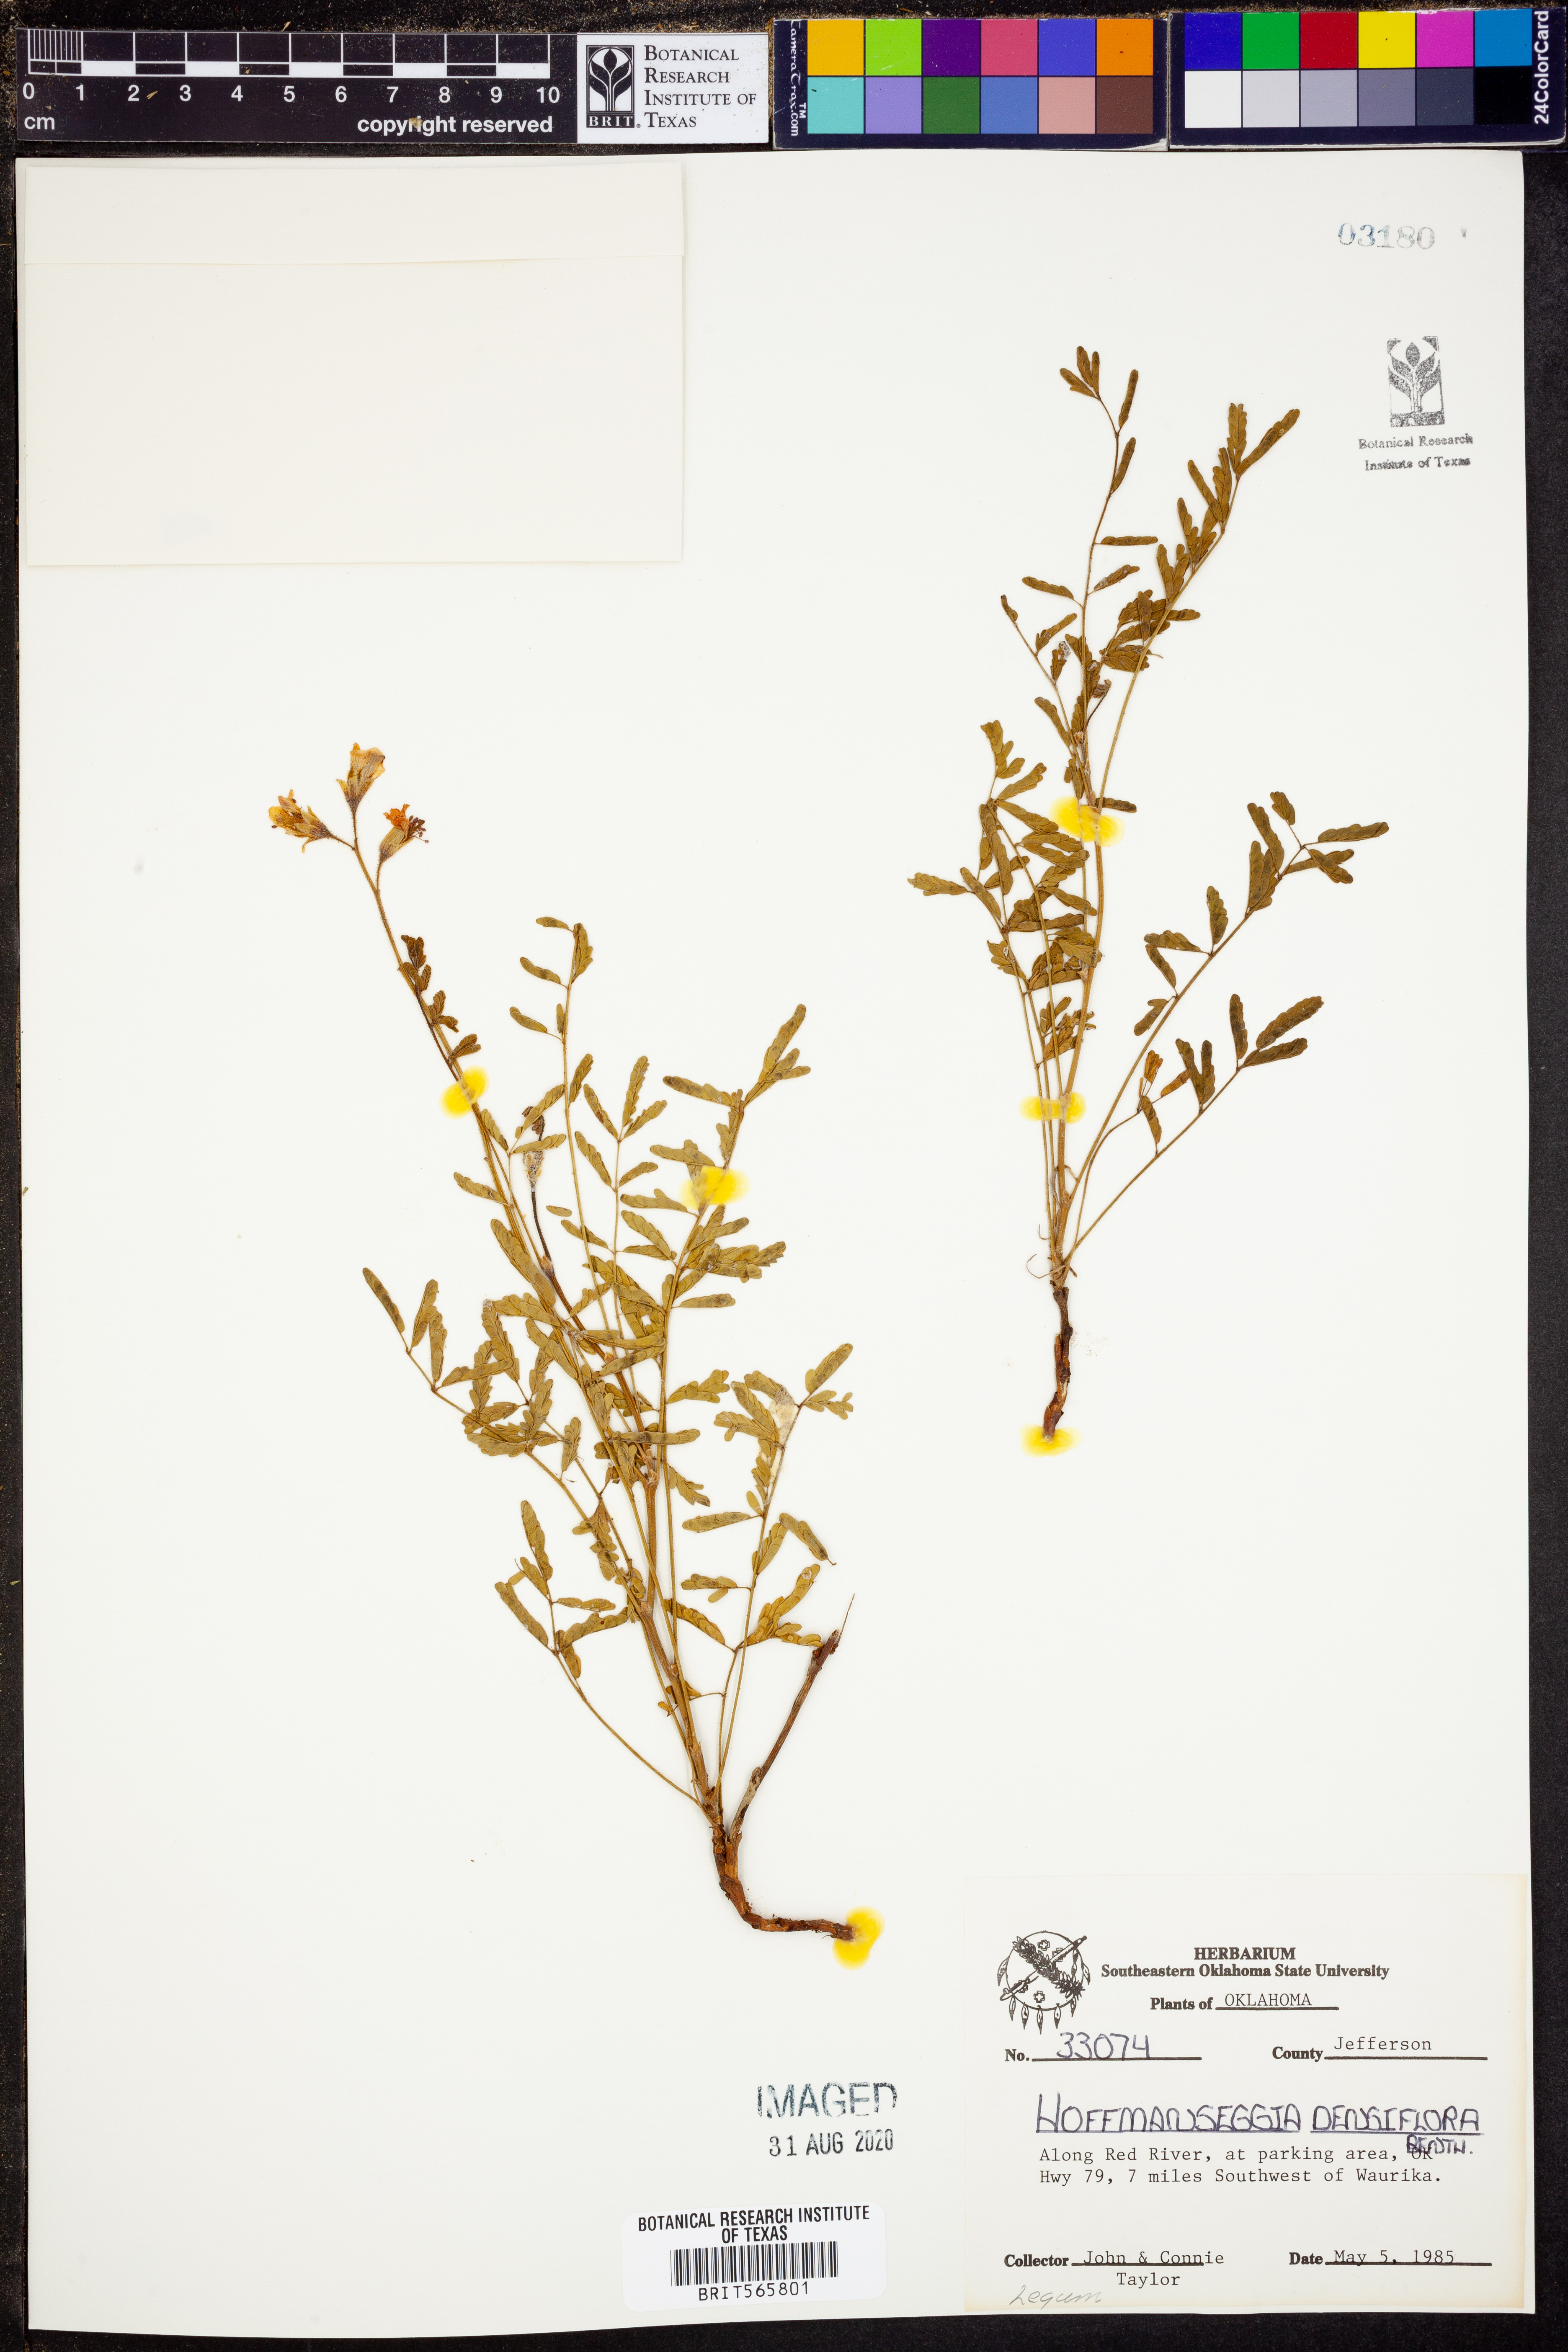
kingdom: Plantae
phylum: Tracheophyta
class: Magnoliopsida
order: Fabales
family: Fabaceae
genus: Hoffmannseggia
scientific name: Hoffmannseggia glauca
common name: Pignut
